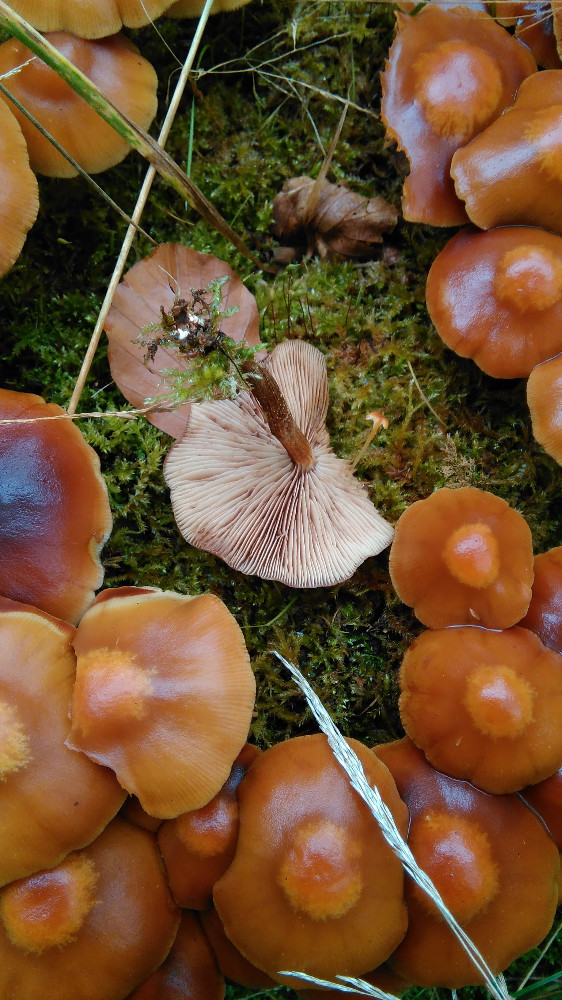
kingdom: Fungi
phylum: Basidiomycota
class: Agaricomycetes
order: Agaricales
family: Strophariaceae
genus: Kuehneromyces
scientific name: Kuehneromyces mutabilis
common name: foranderlig skælhat
